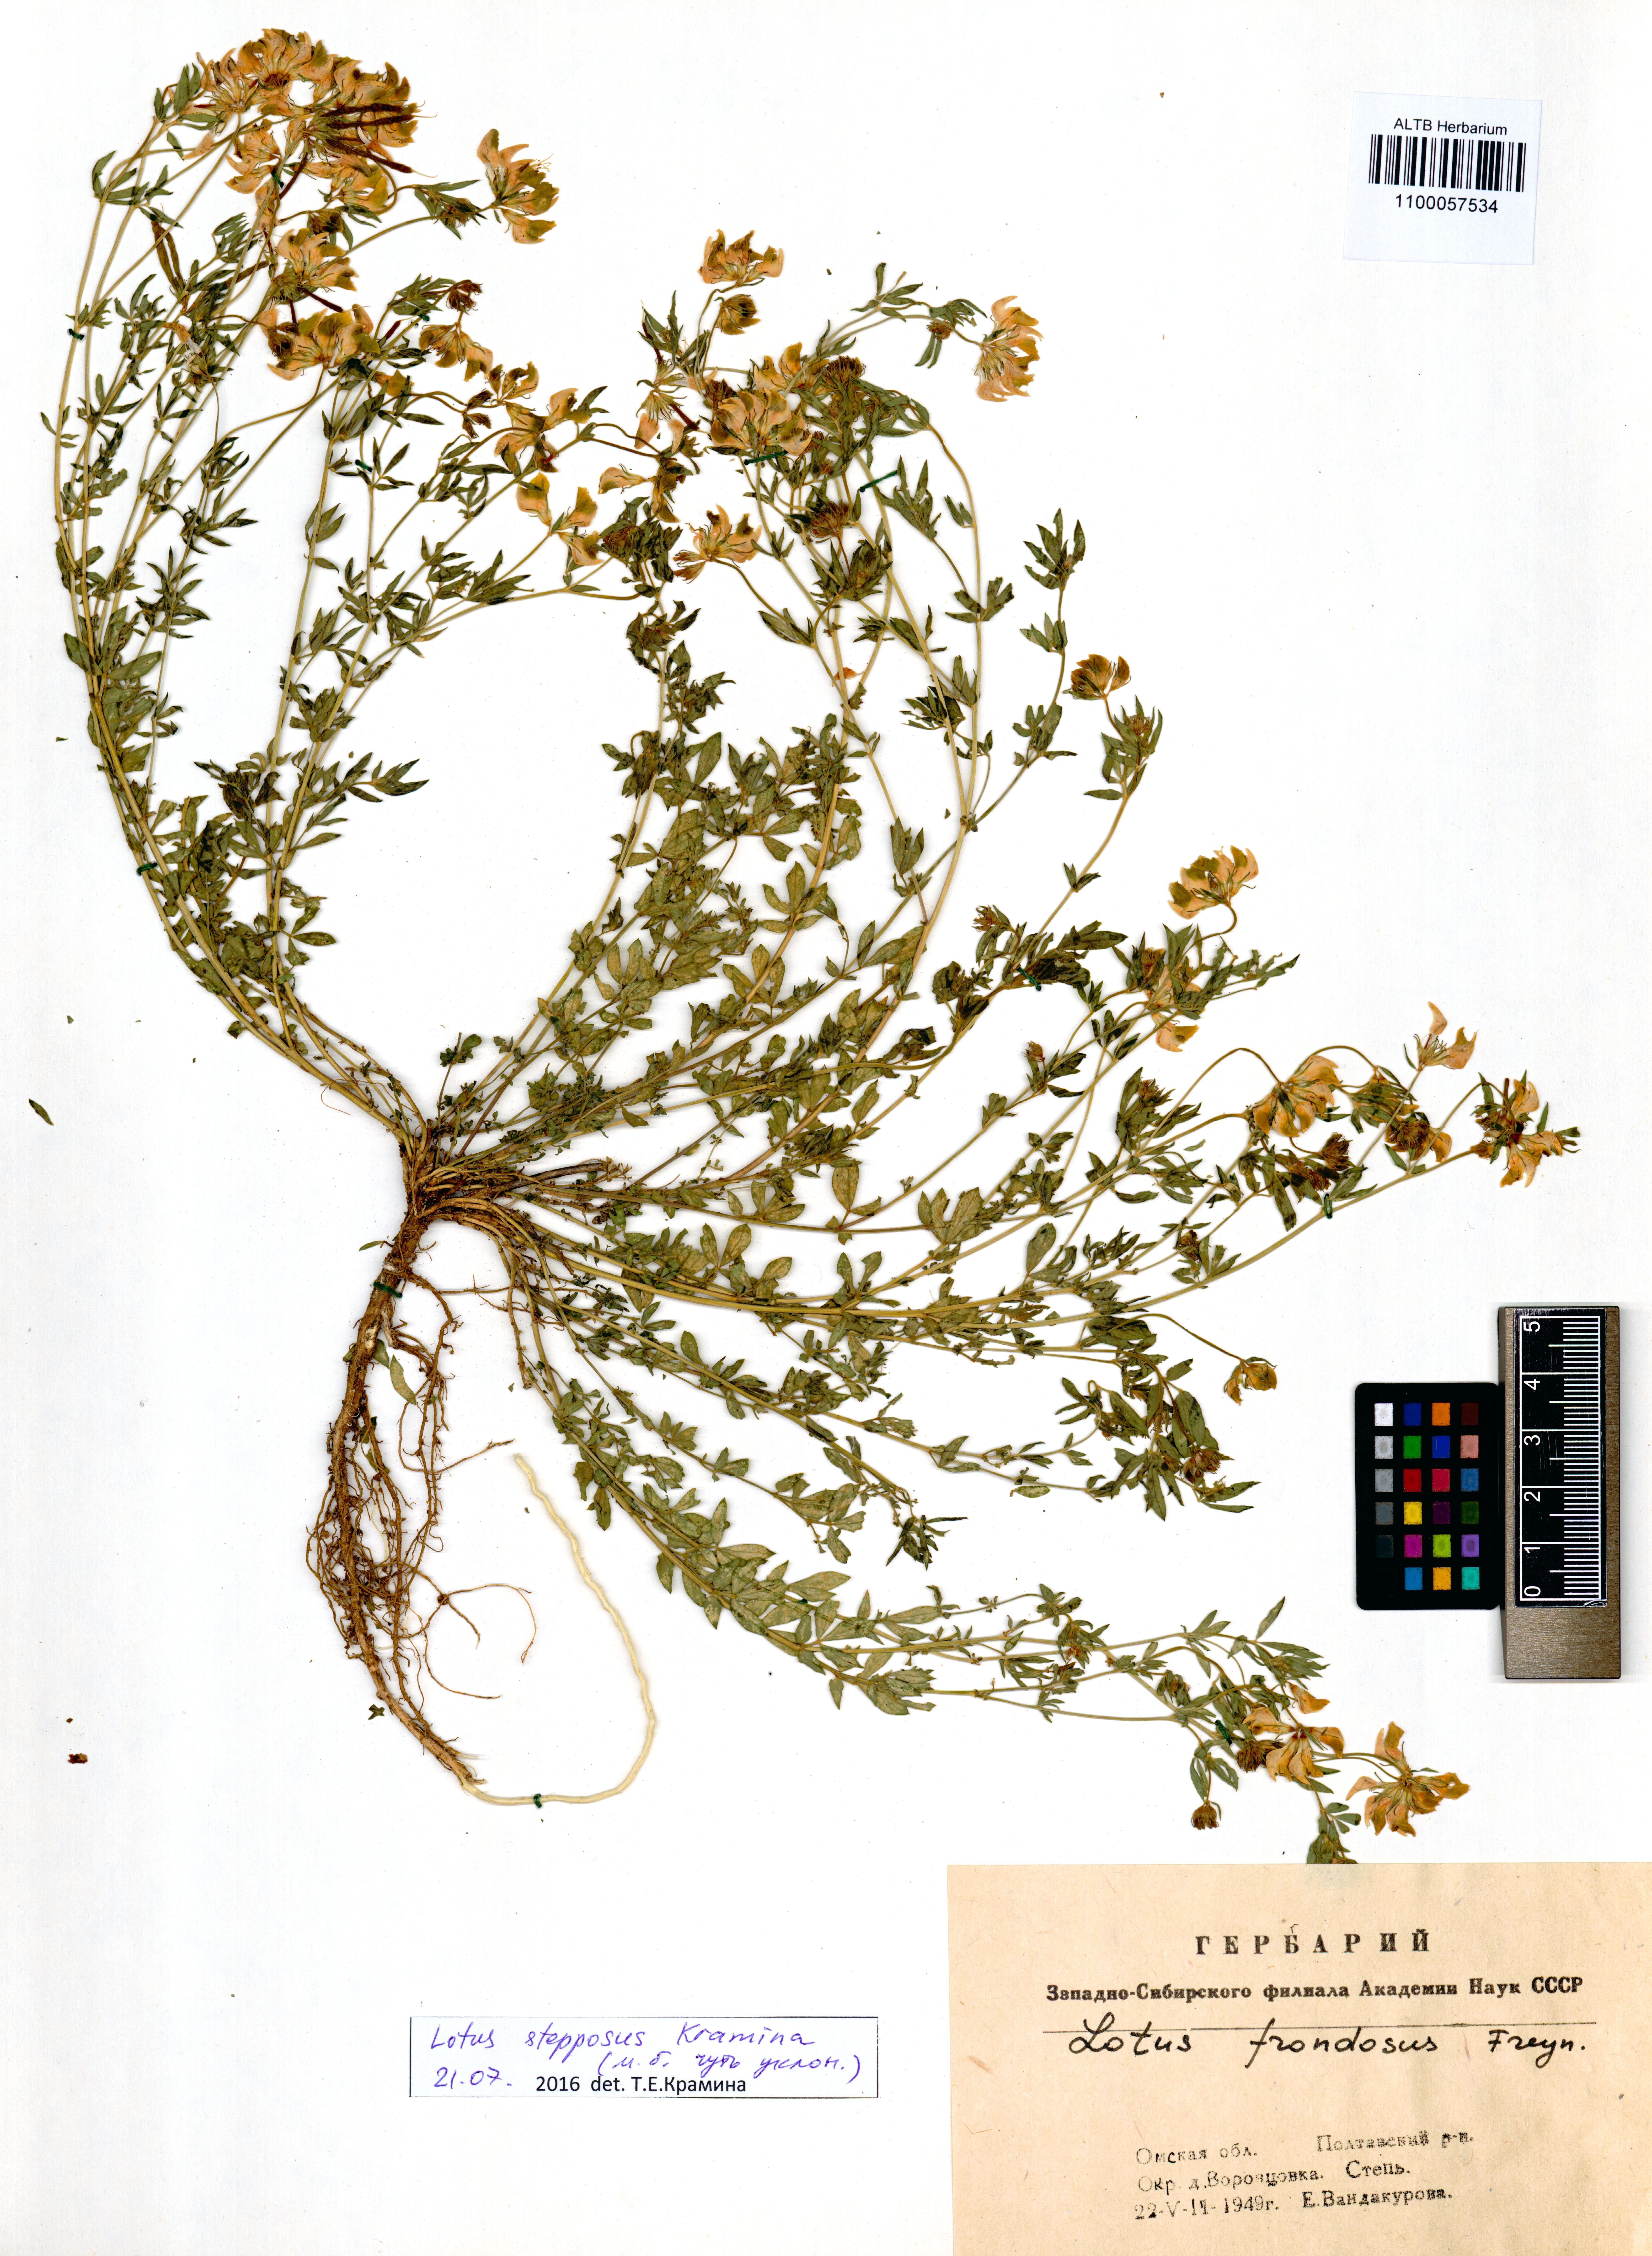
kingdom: Plantae
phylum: Tracheophyta
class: Magnoliopsida
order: Fabales
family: Fabaceae
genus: Lotus
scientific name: Lotus stepposus
